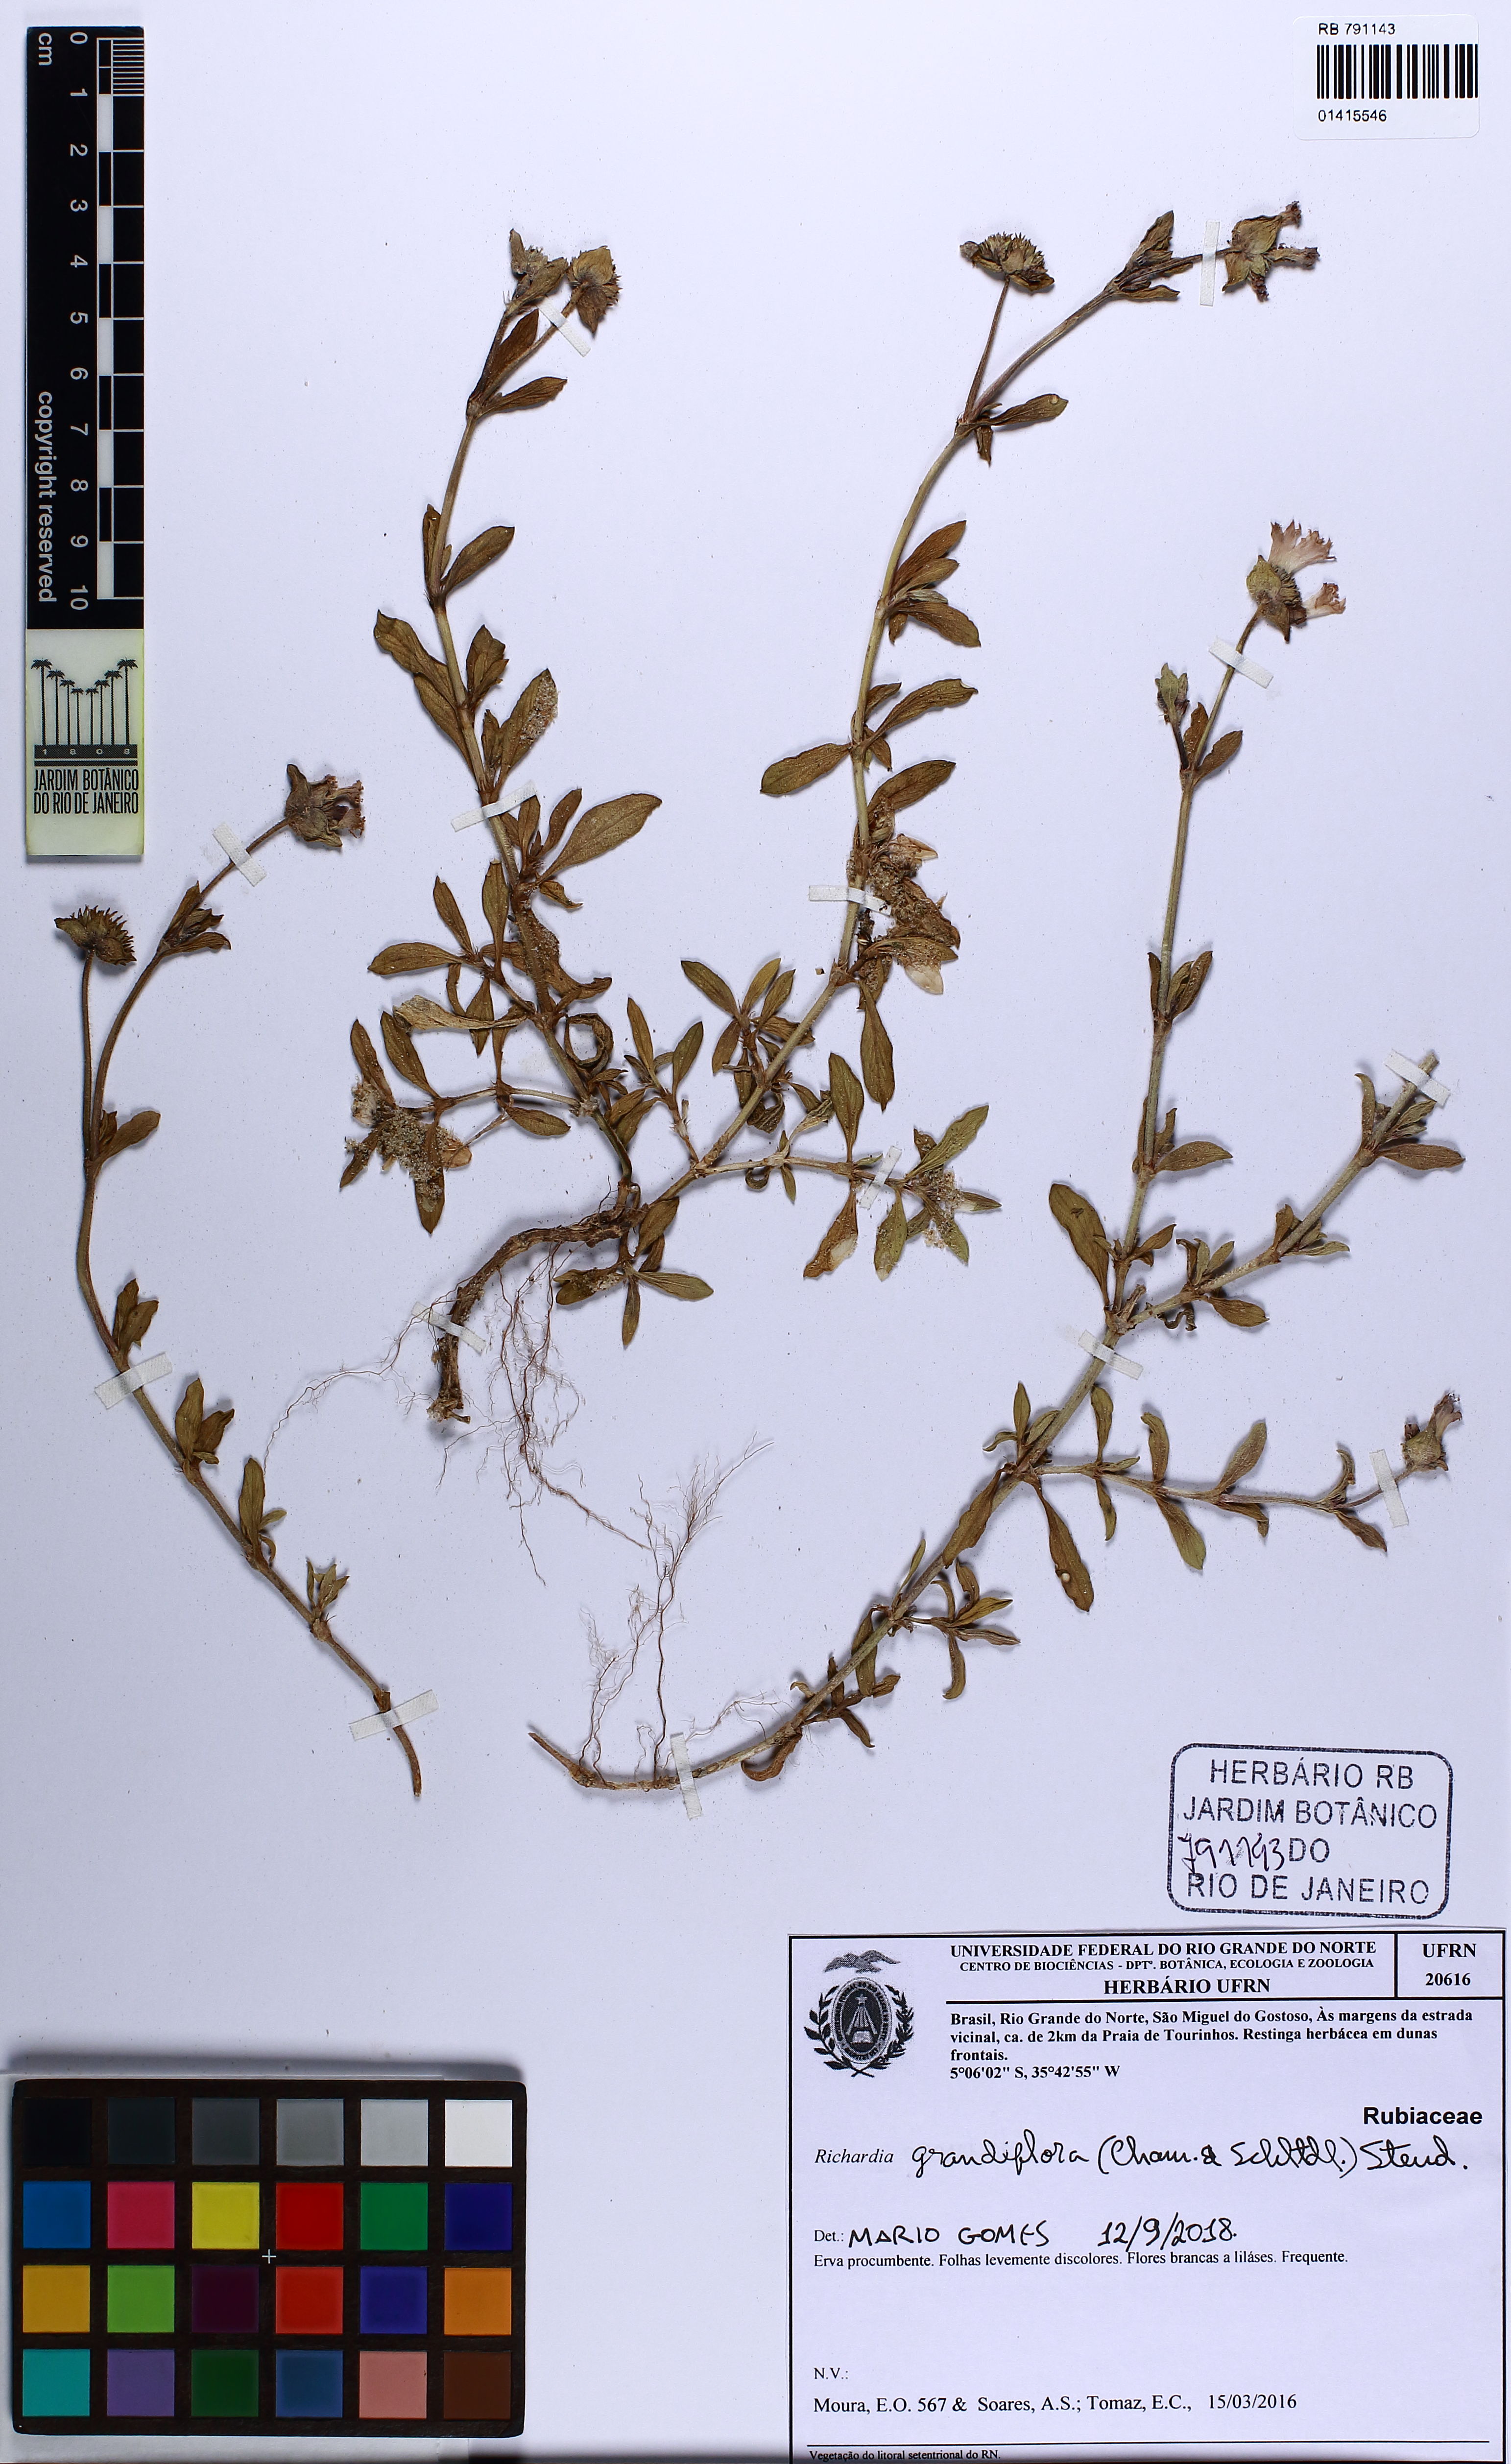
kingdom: Plantae
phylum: Tracheophyta
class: Magnoliopsida
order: Gentianales
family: Rubiaceae
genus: Richardia
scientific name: Richardia grandiflora
